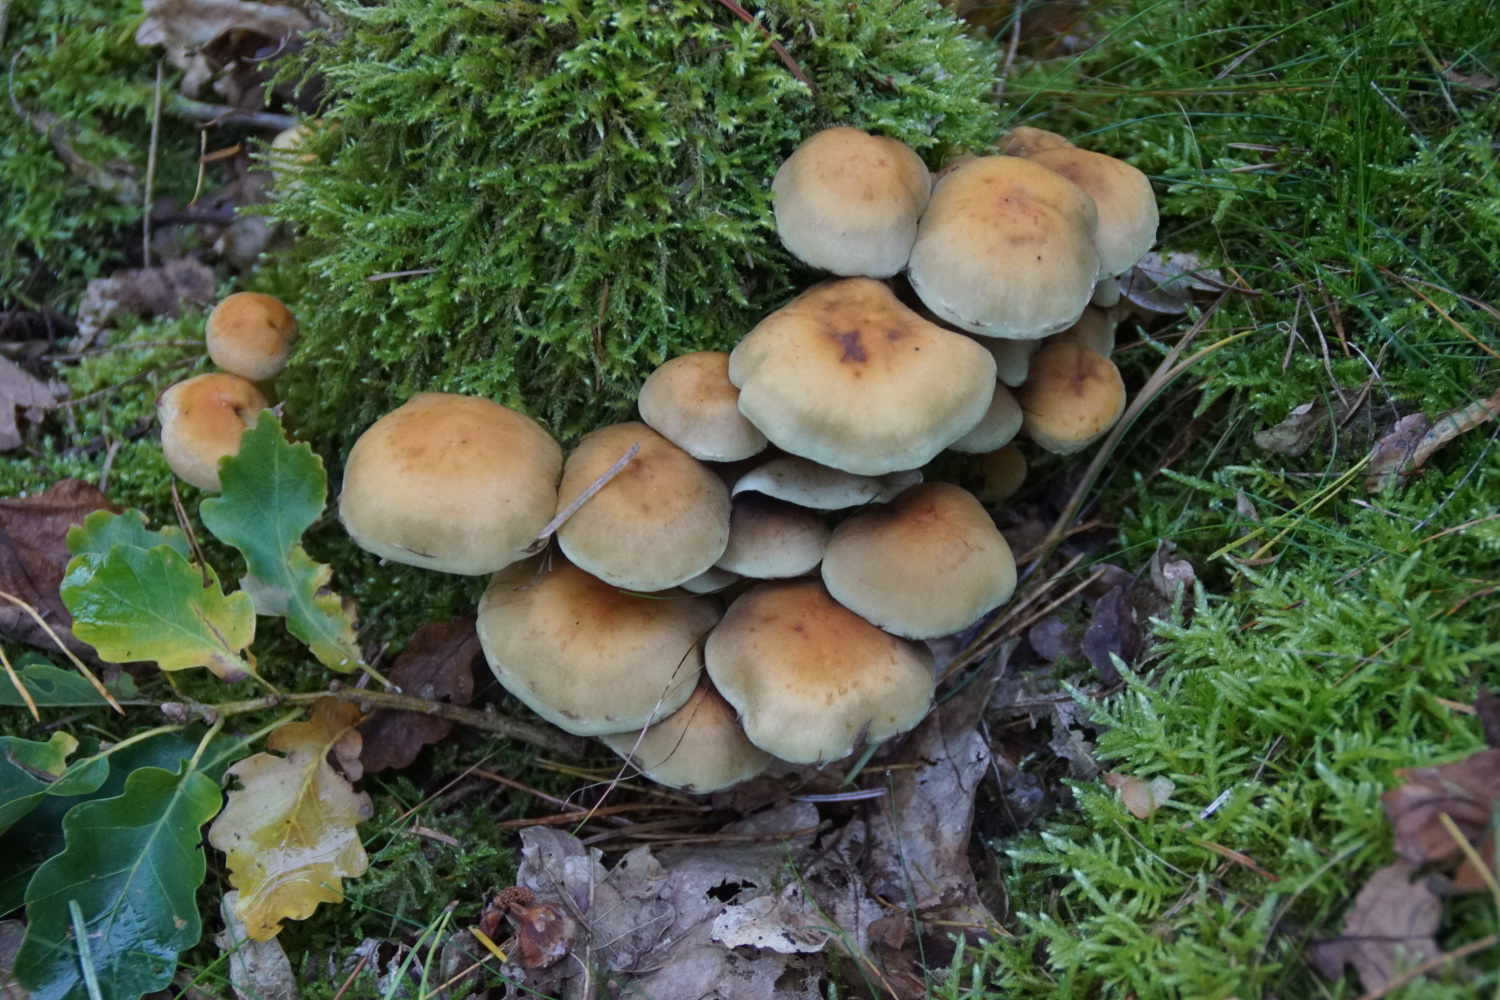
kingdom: Fungi
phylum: Basidiomycota
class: Agaricomycetes
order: Agaricales
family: Strophariaceae
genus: Hypholoma
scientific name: Hypholoma fasciculare
